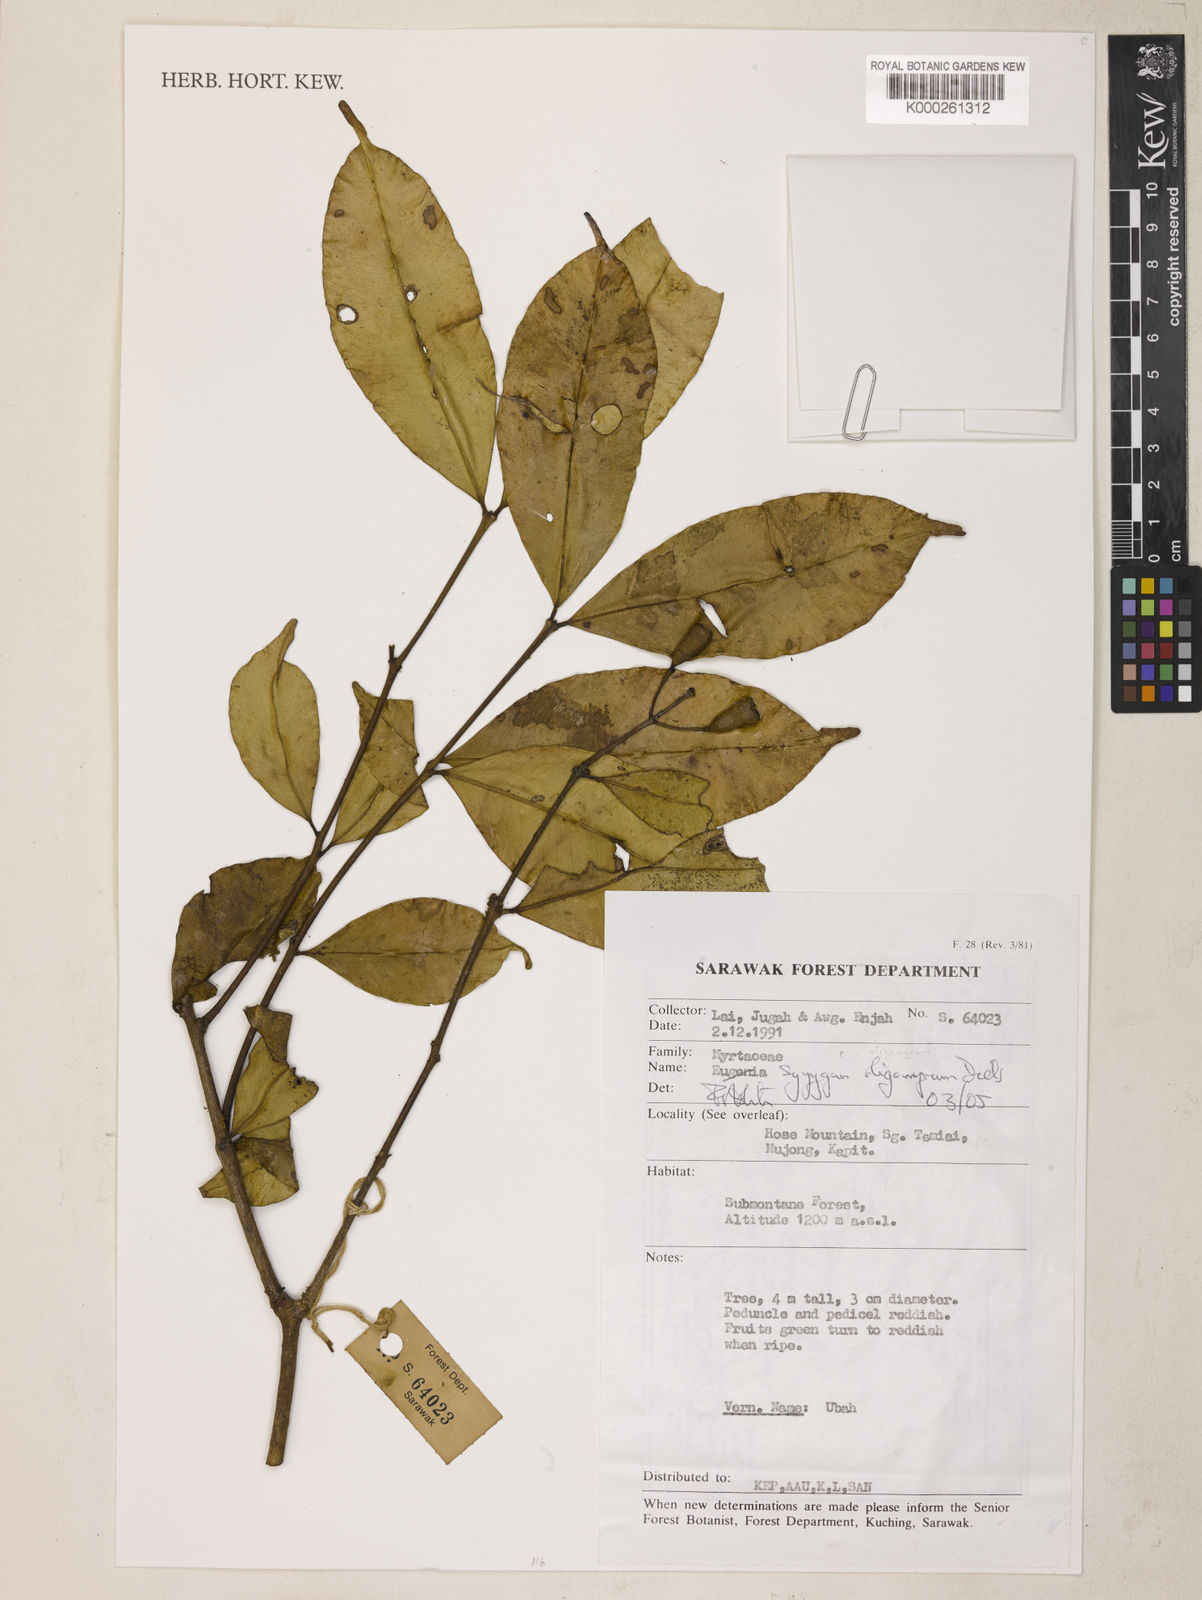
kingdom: Plantae
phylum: Tracheophyta
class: Magnoliopsida
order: Myrtales
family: Myrtaceae
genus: Syzygium
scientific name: Syzygium oligomyrum
